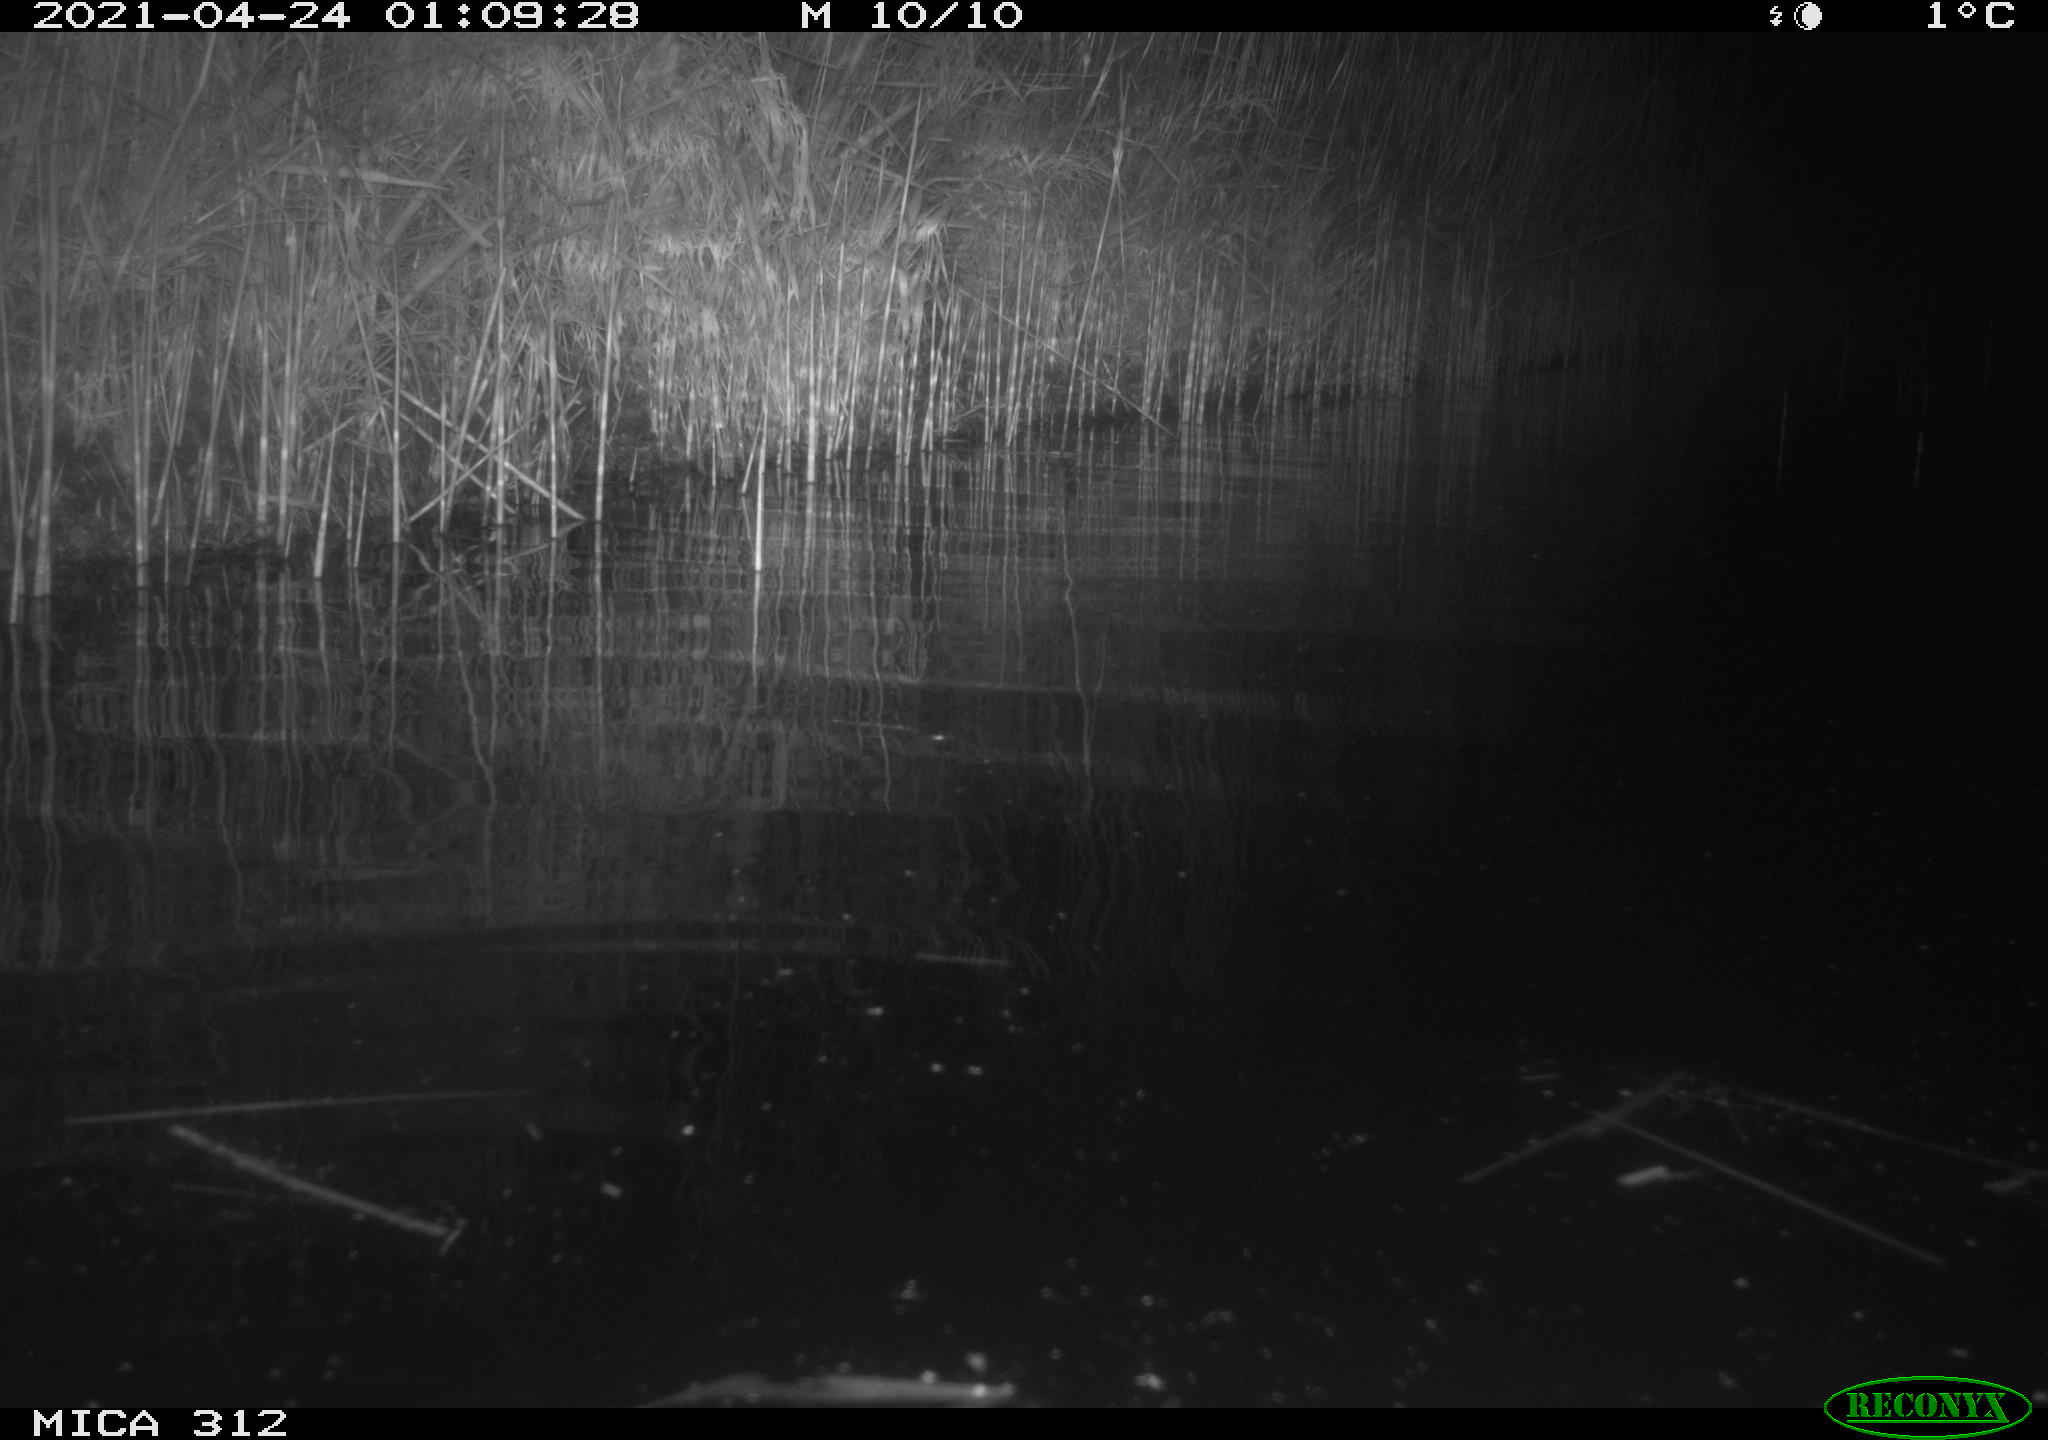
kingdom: Animalia
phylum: Chordata
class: Aves
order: Gruiformes
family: Rallidae
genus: Fulica
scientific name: Fulica atra
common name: Eurasian coot
